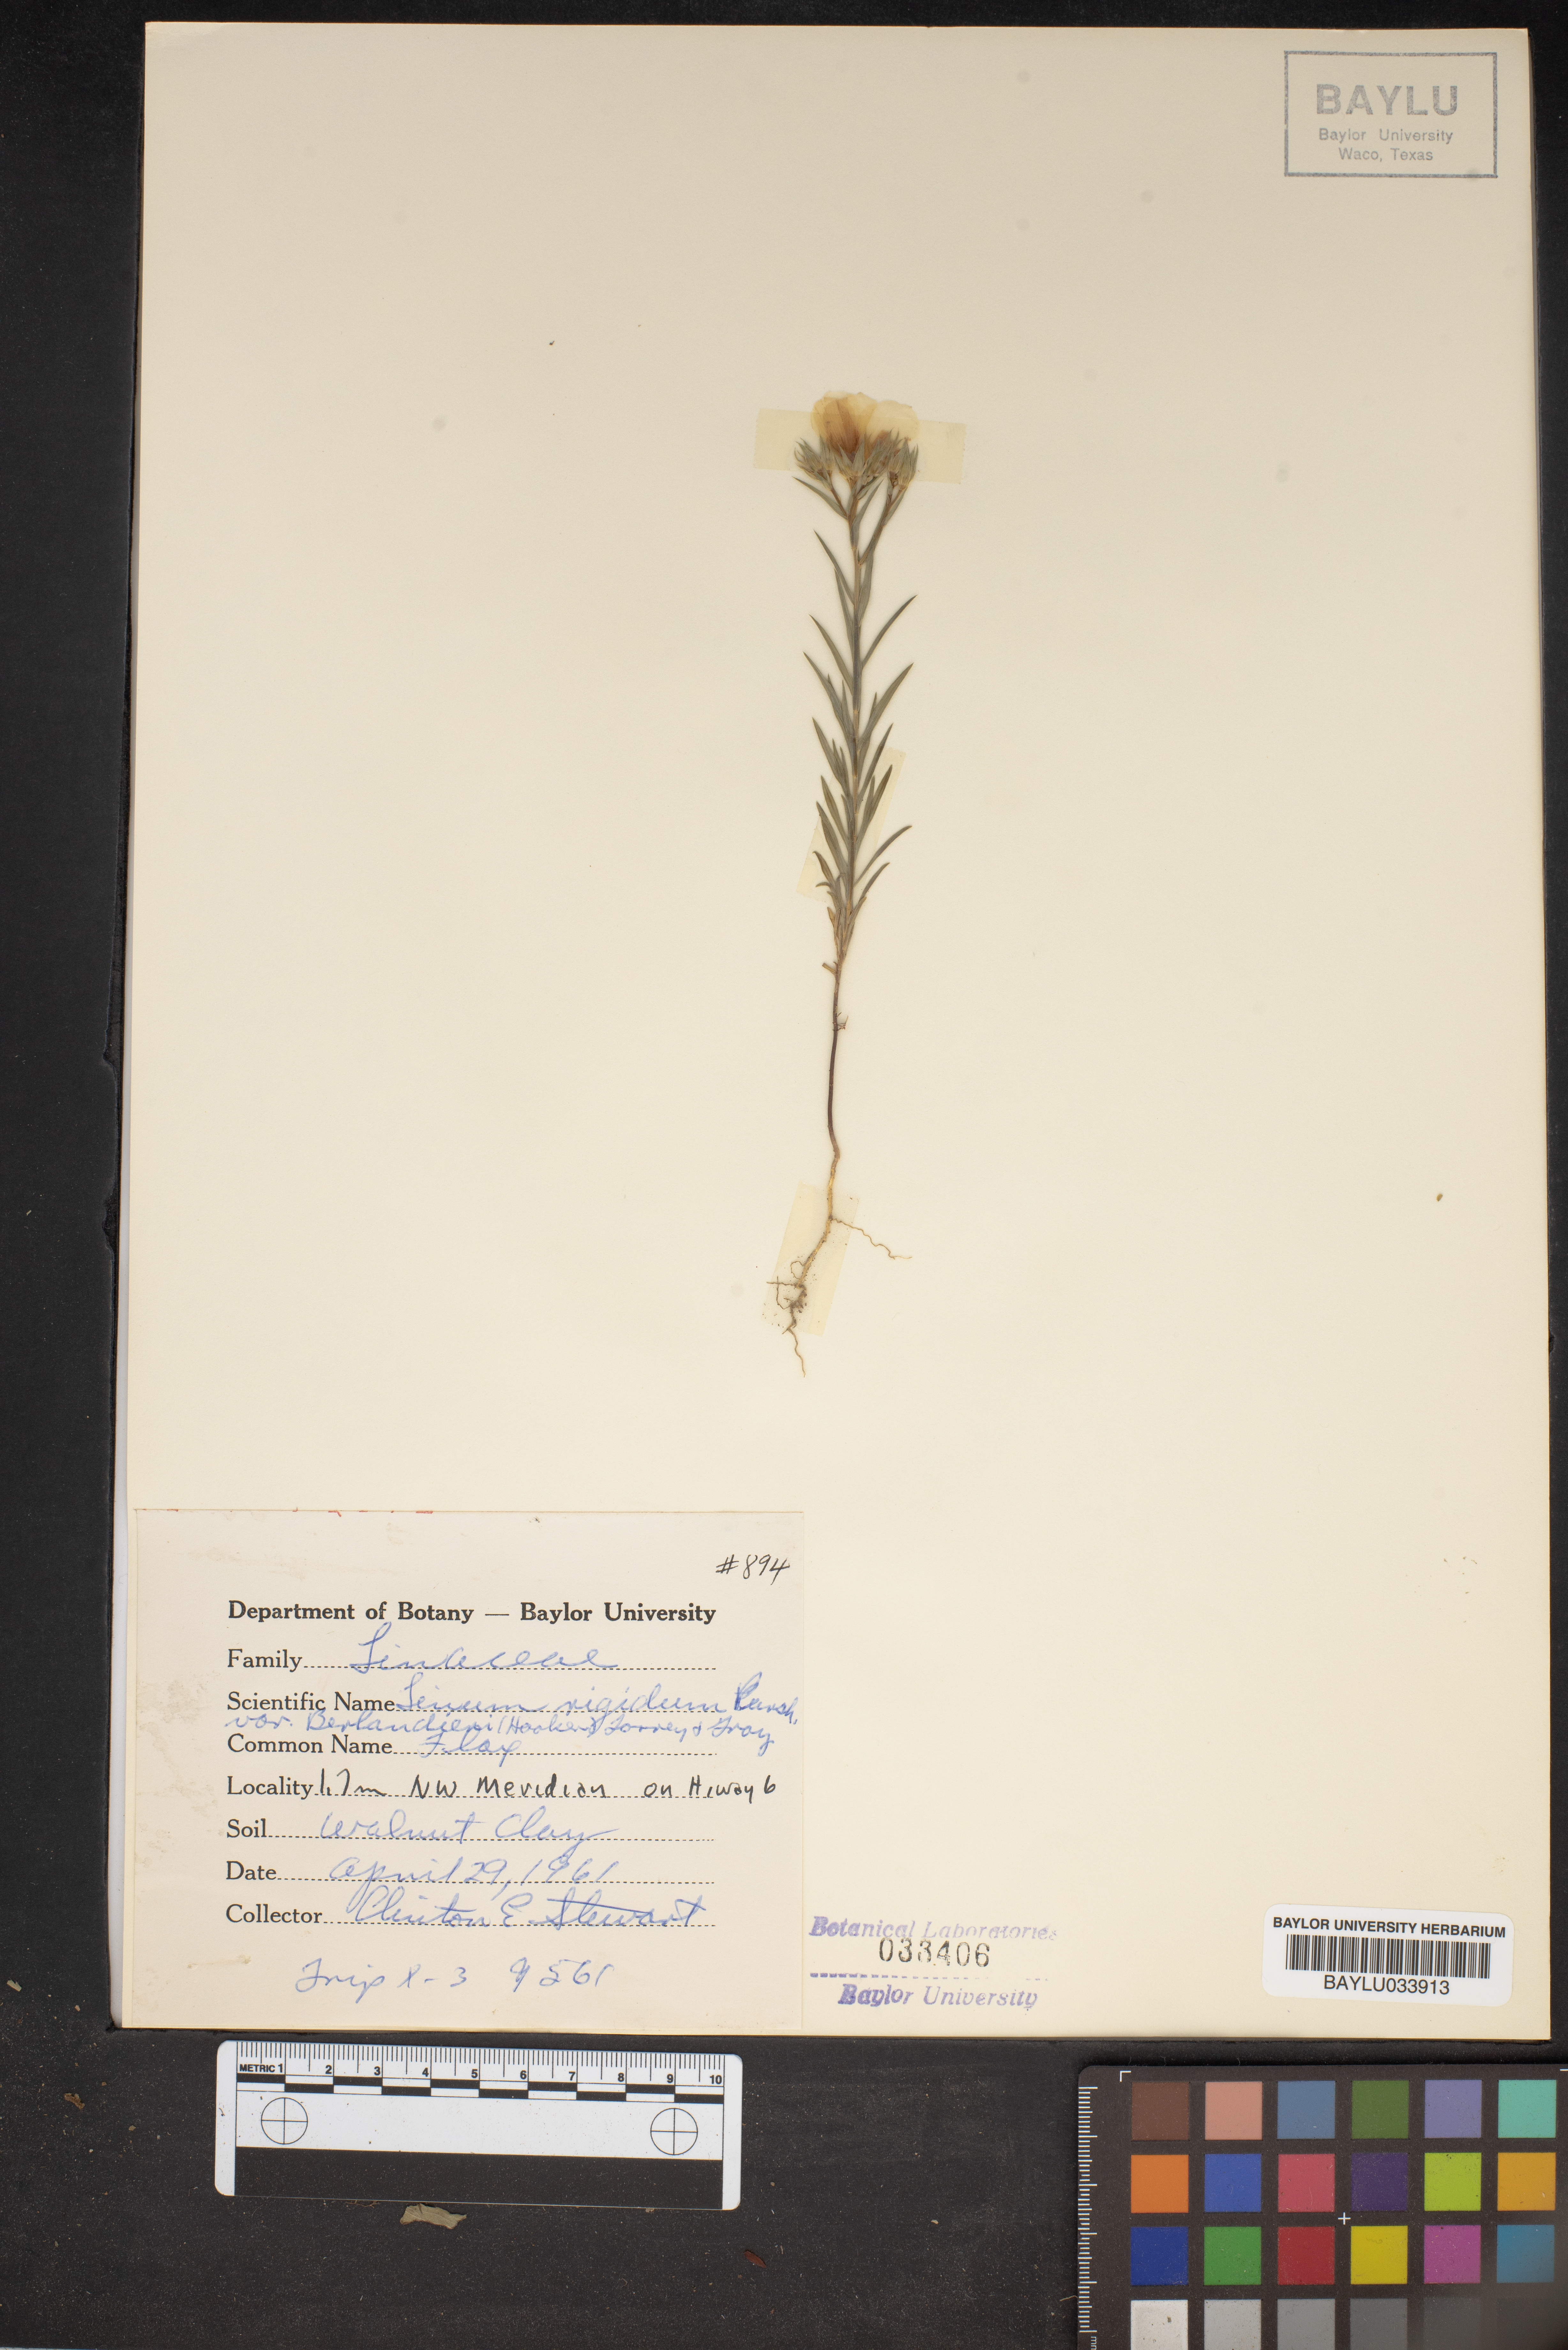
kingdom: Plantae
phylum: Tracheophyta
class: Magnoliopsida
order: Malpighiales
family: Linaceae
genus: Linum
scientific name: Linum berlandieri
